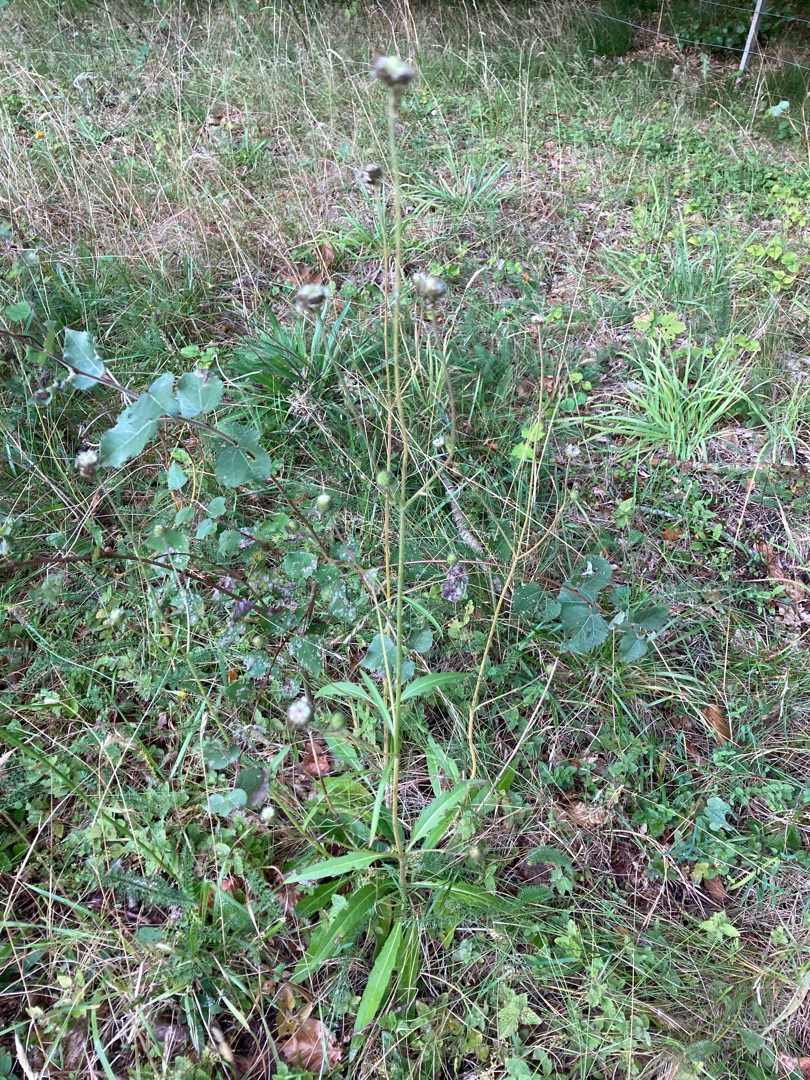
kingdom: Plantae
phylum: Tracheophyta
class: Magnoliopsida
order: Dipsacales
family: Caprifoliaceae
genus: Succisa
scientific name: Succisa pratensis
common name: Djævelsbid
